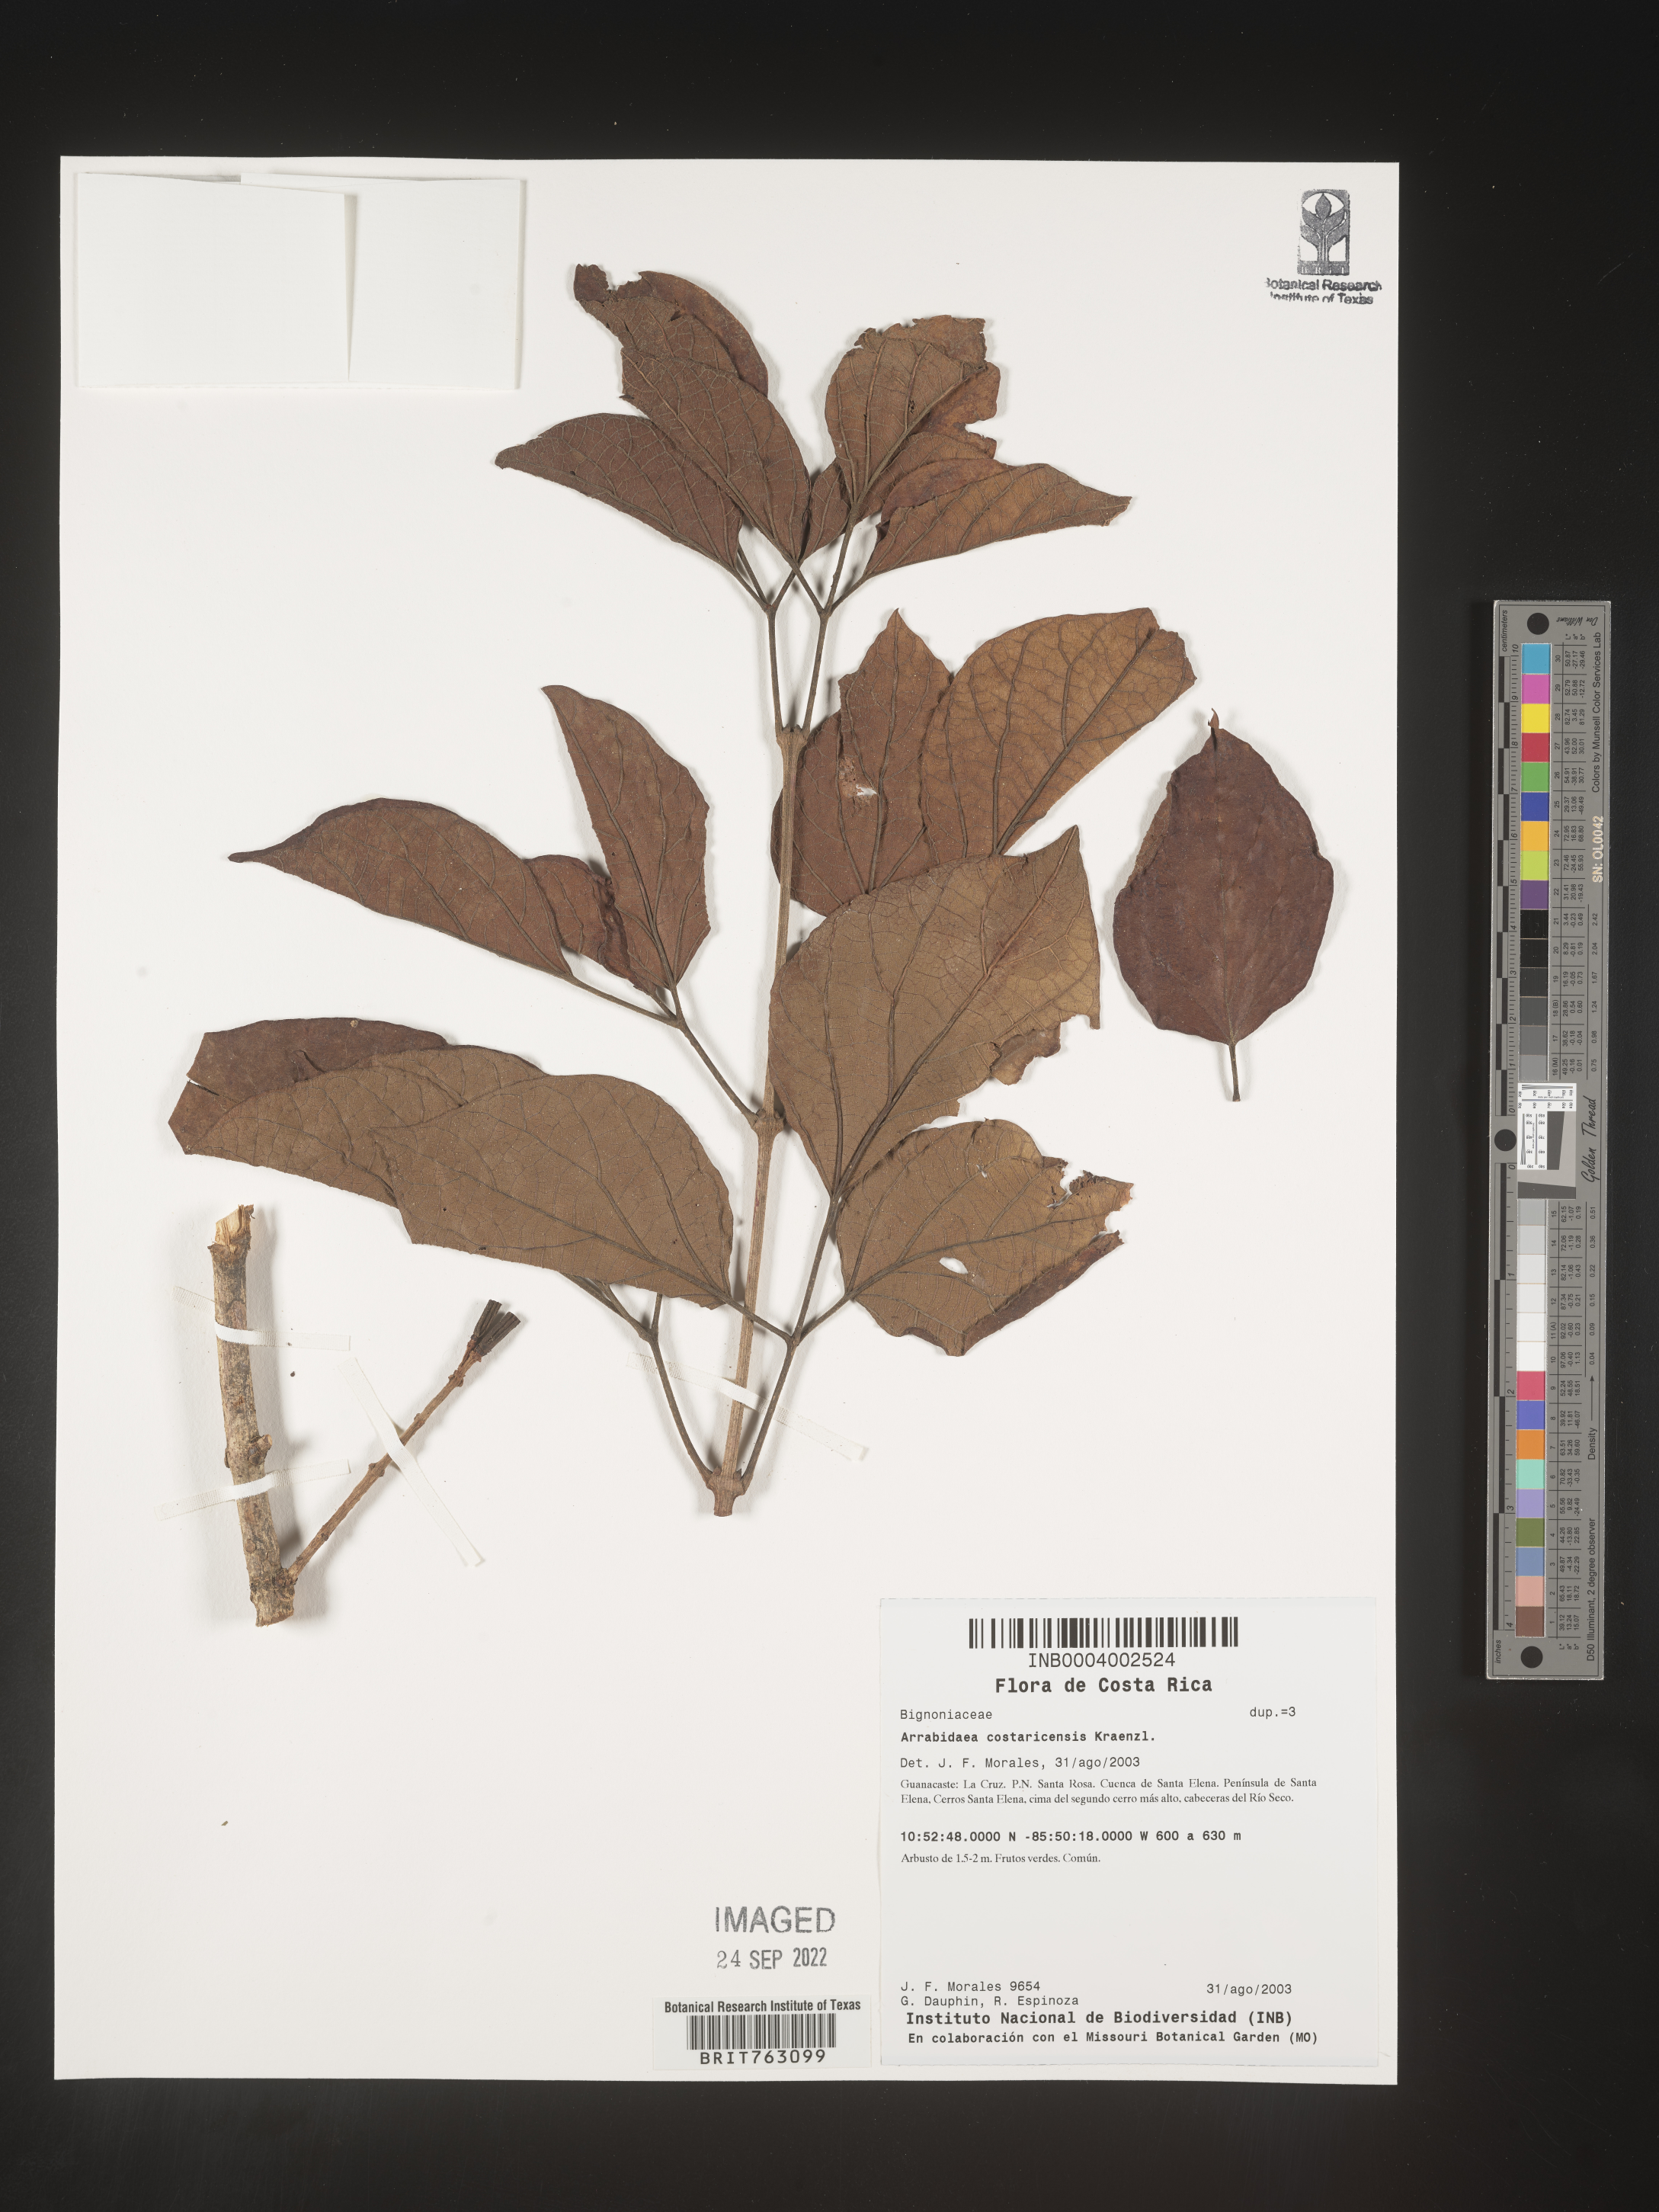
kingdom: Plantae
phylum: Tracheophyta
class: Magnoliopsida
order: Rosales
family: Rhamnaceae
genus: Arrabidaea
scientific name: Arrabidaea
